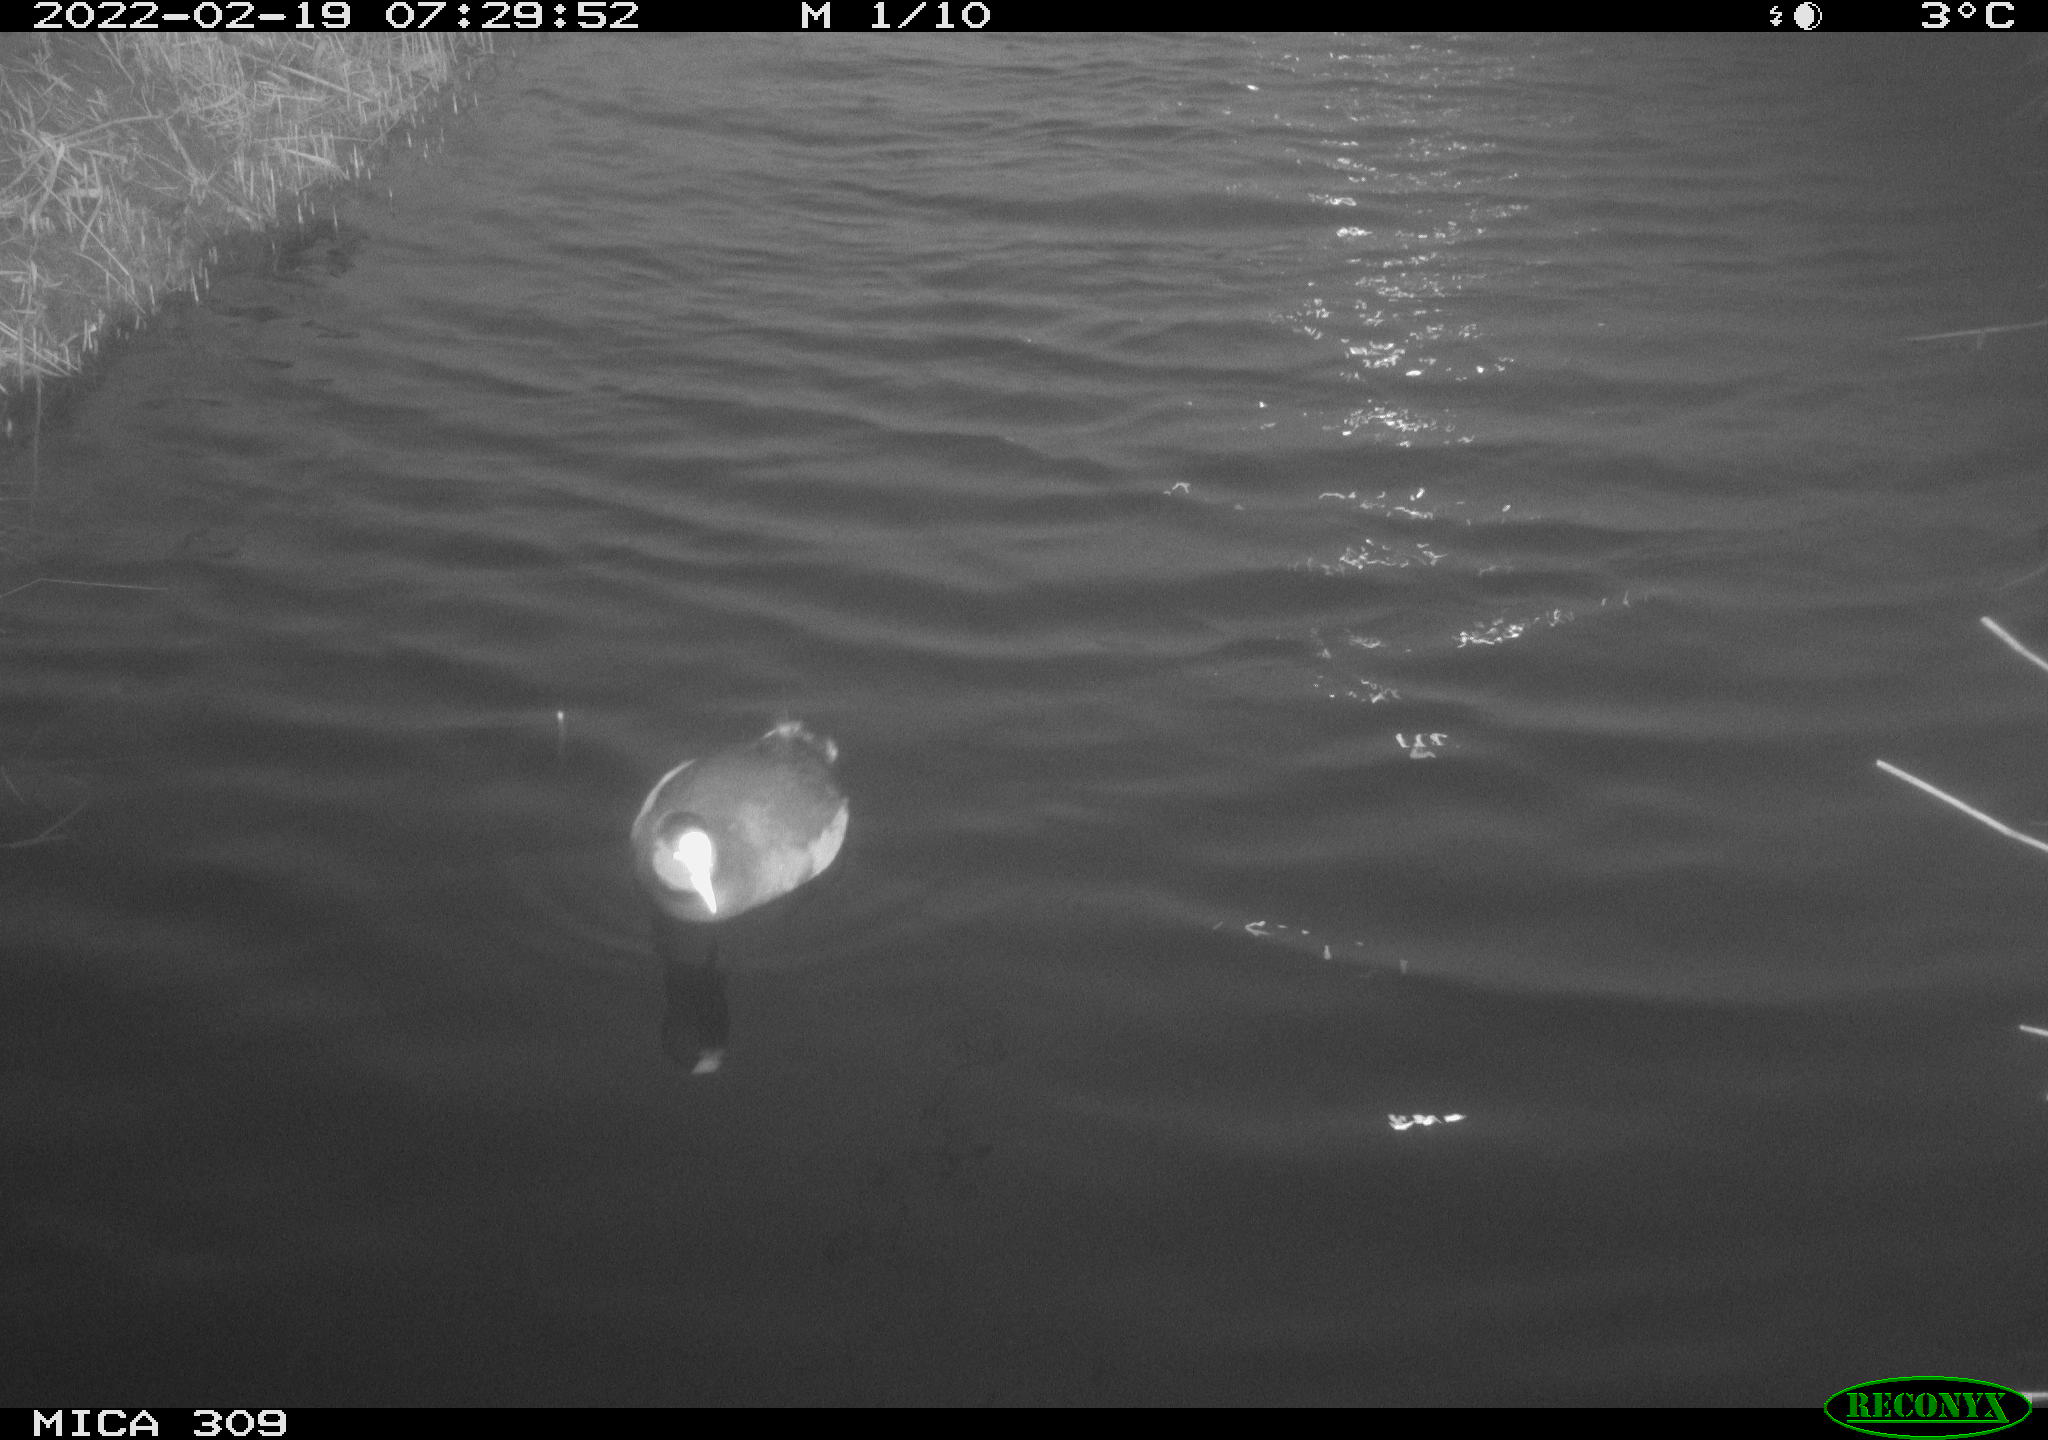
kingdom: Animalia
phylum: Chordata
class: Aves
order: Gruiformes
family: Rallidae
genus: Fulica
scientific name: Fulica atra
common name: Eurasian coot
